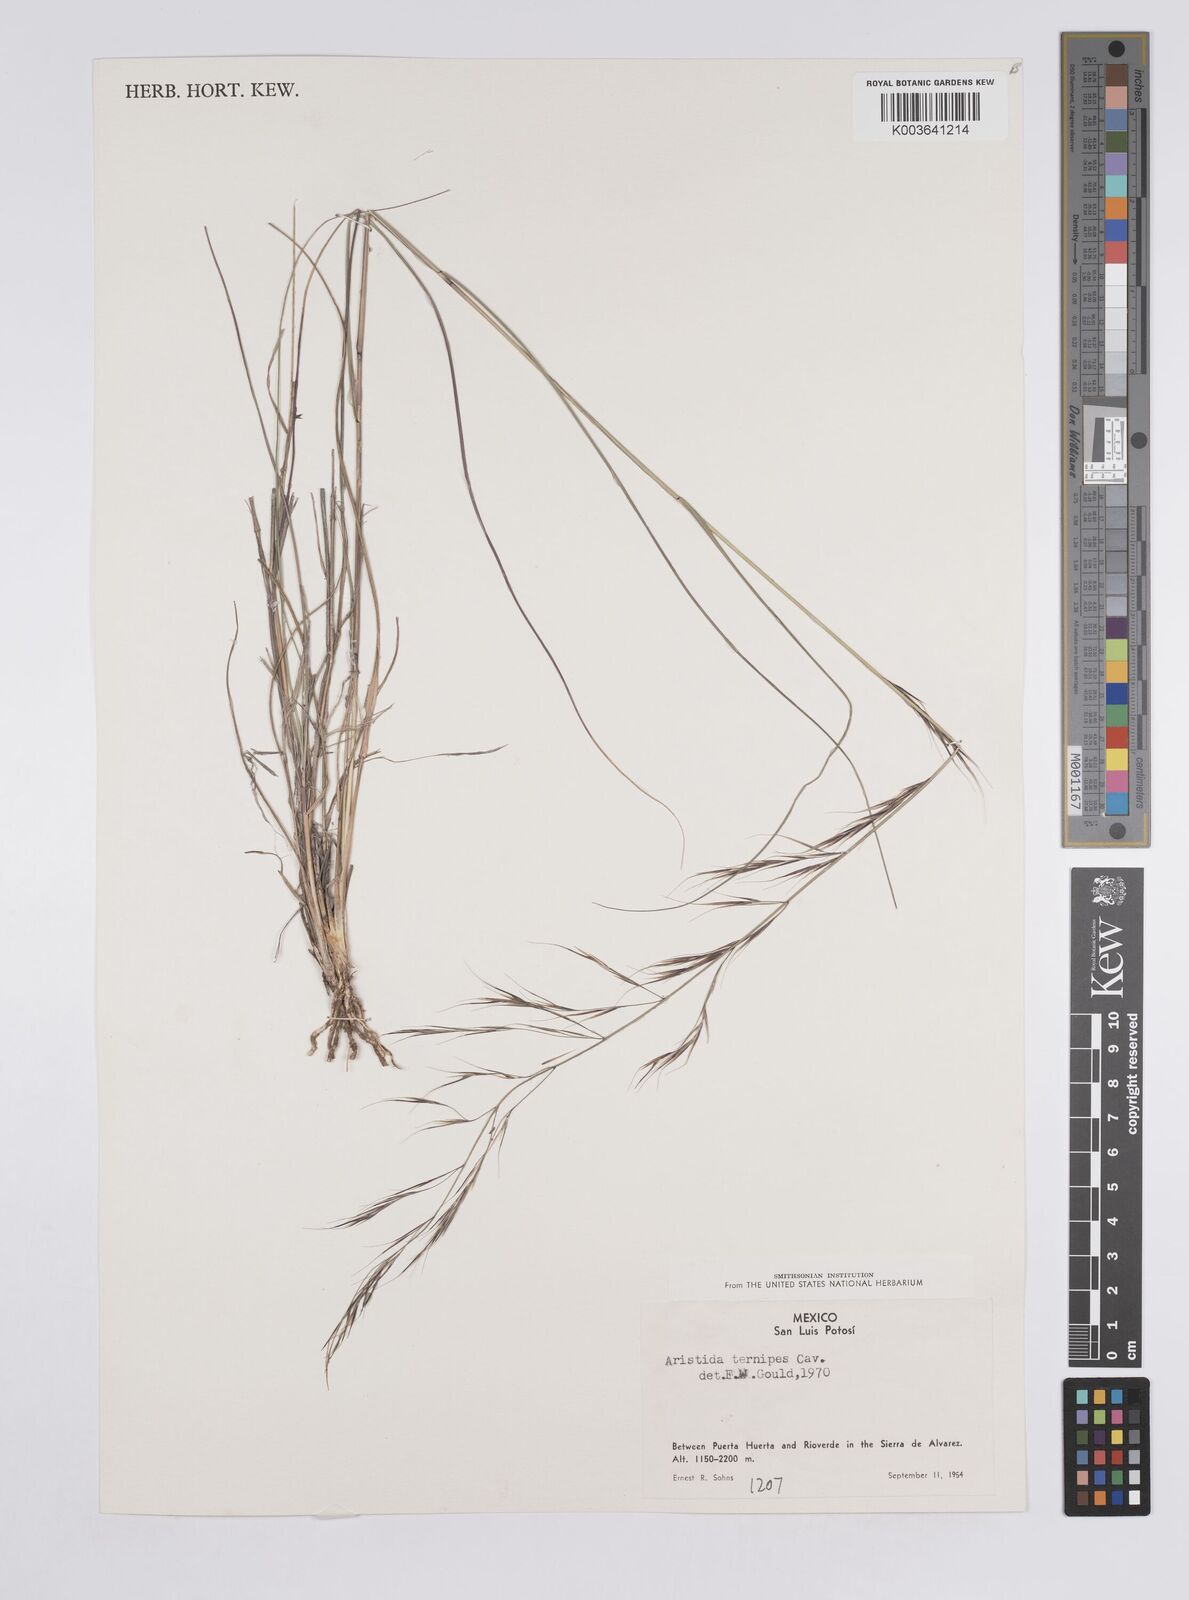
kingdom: Plantae
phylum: Tracheophyta
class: Liliopsida
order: Poales
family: Poaceae
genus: Aristida
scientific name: Aristida
